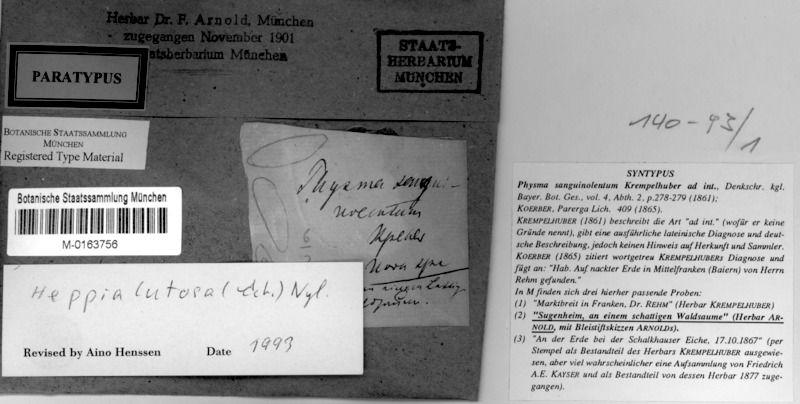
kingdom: Fungi
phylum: Ascomycota
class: Lichinomycetes
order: Lichinales
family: Lichinaceae
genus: Heppia
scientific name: Heppia lutosa
